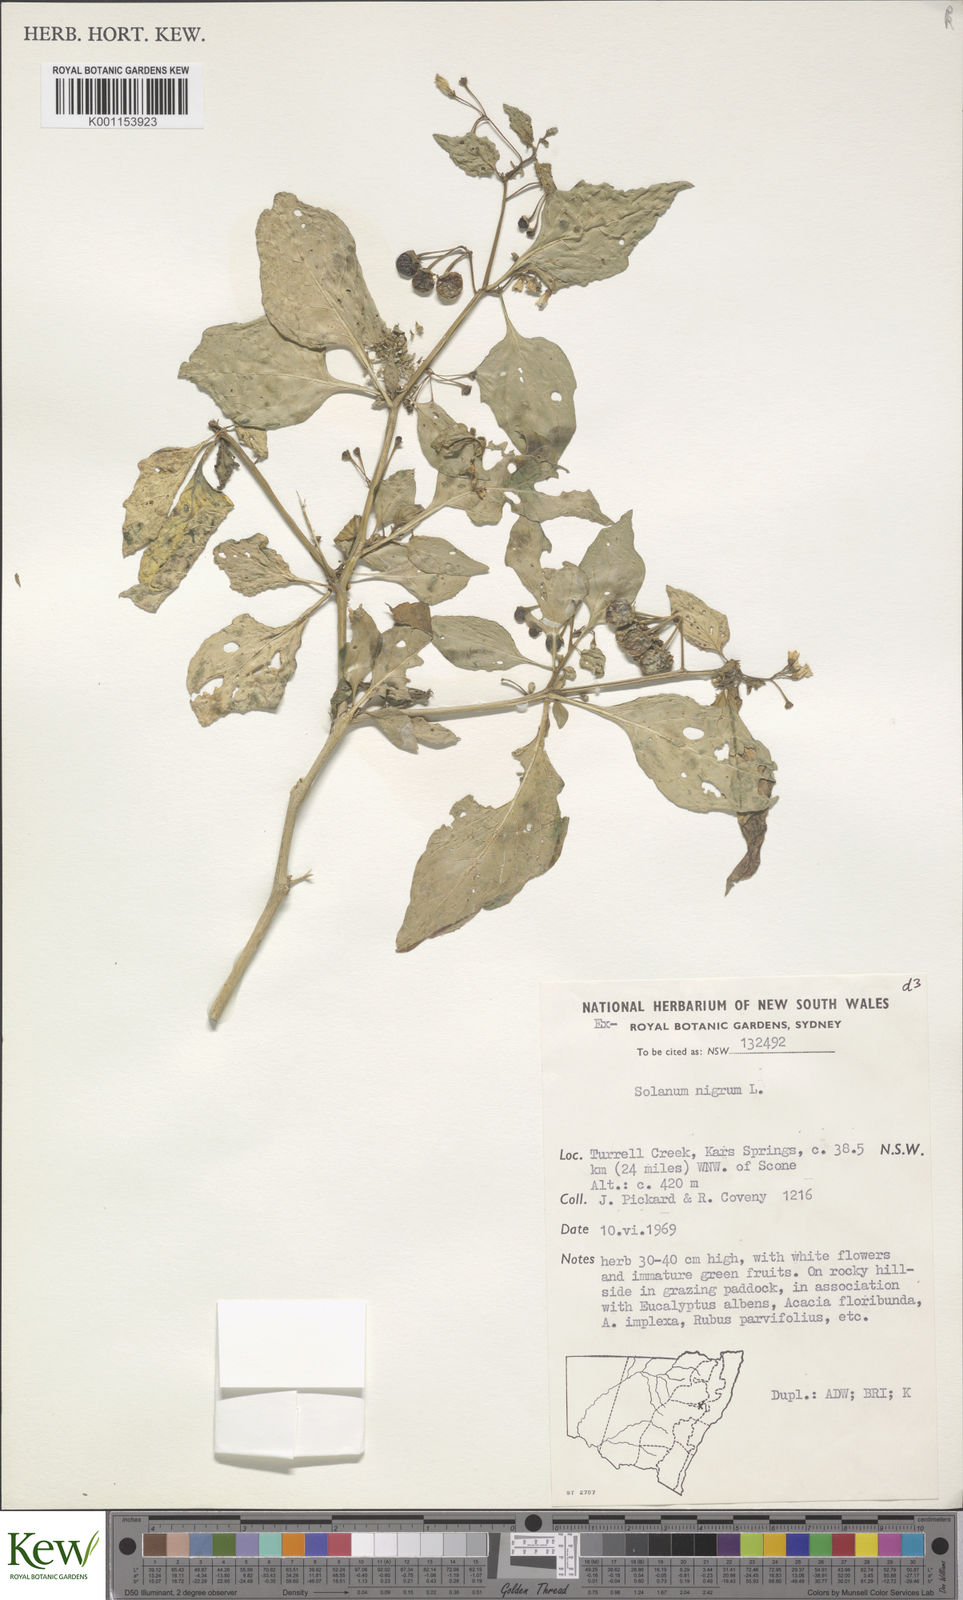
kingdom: Plantae
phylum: Tracheophyta
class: Magnoliopsida
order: Solanales
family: Solanaceae
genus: Solanum
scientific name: Solanum nigrum
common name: Black nightshade
